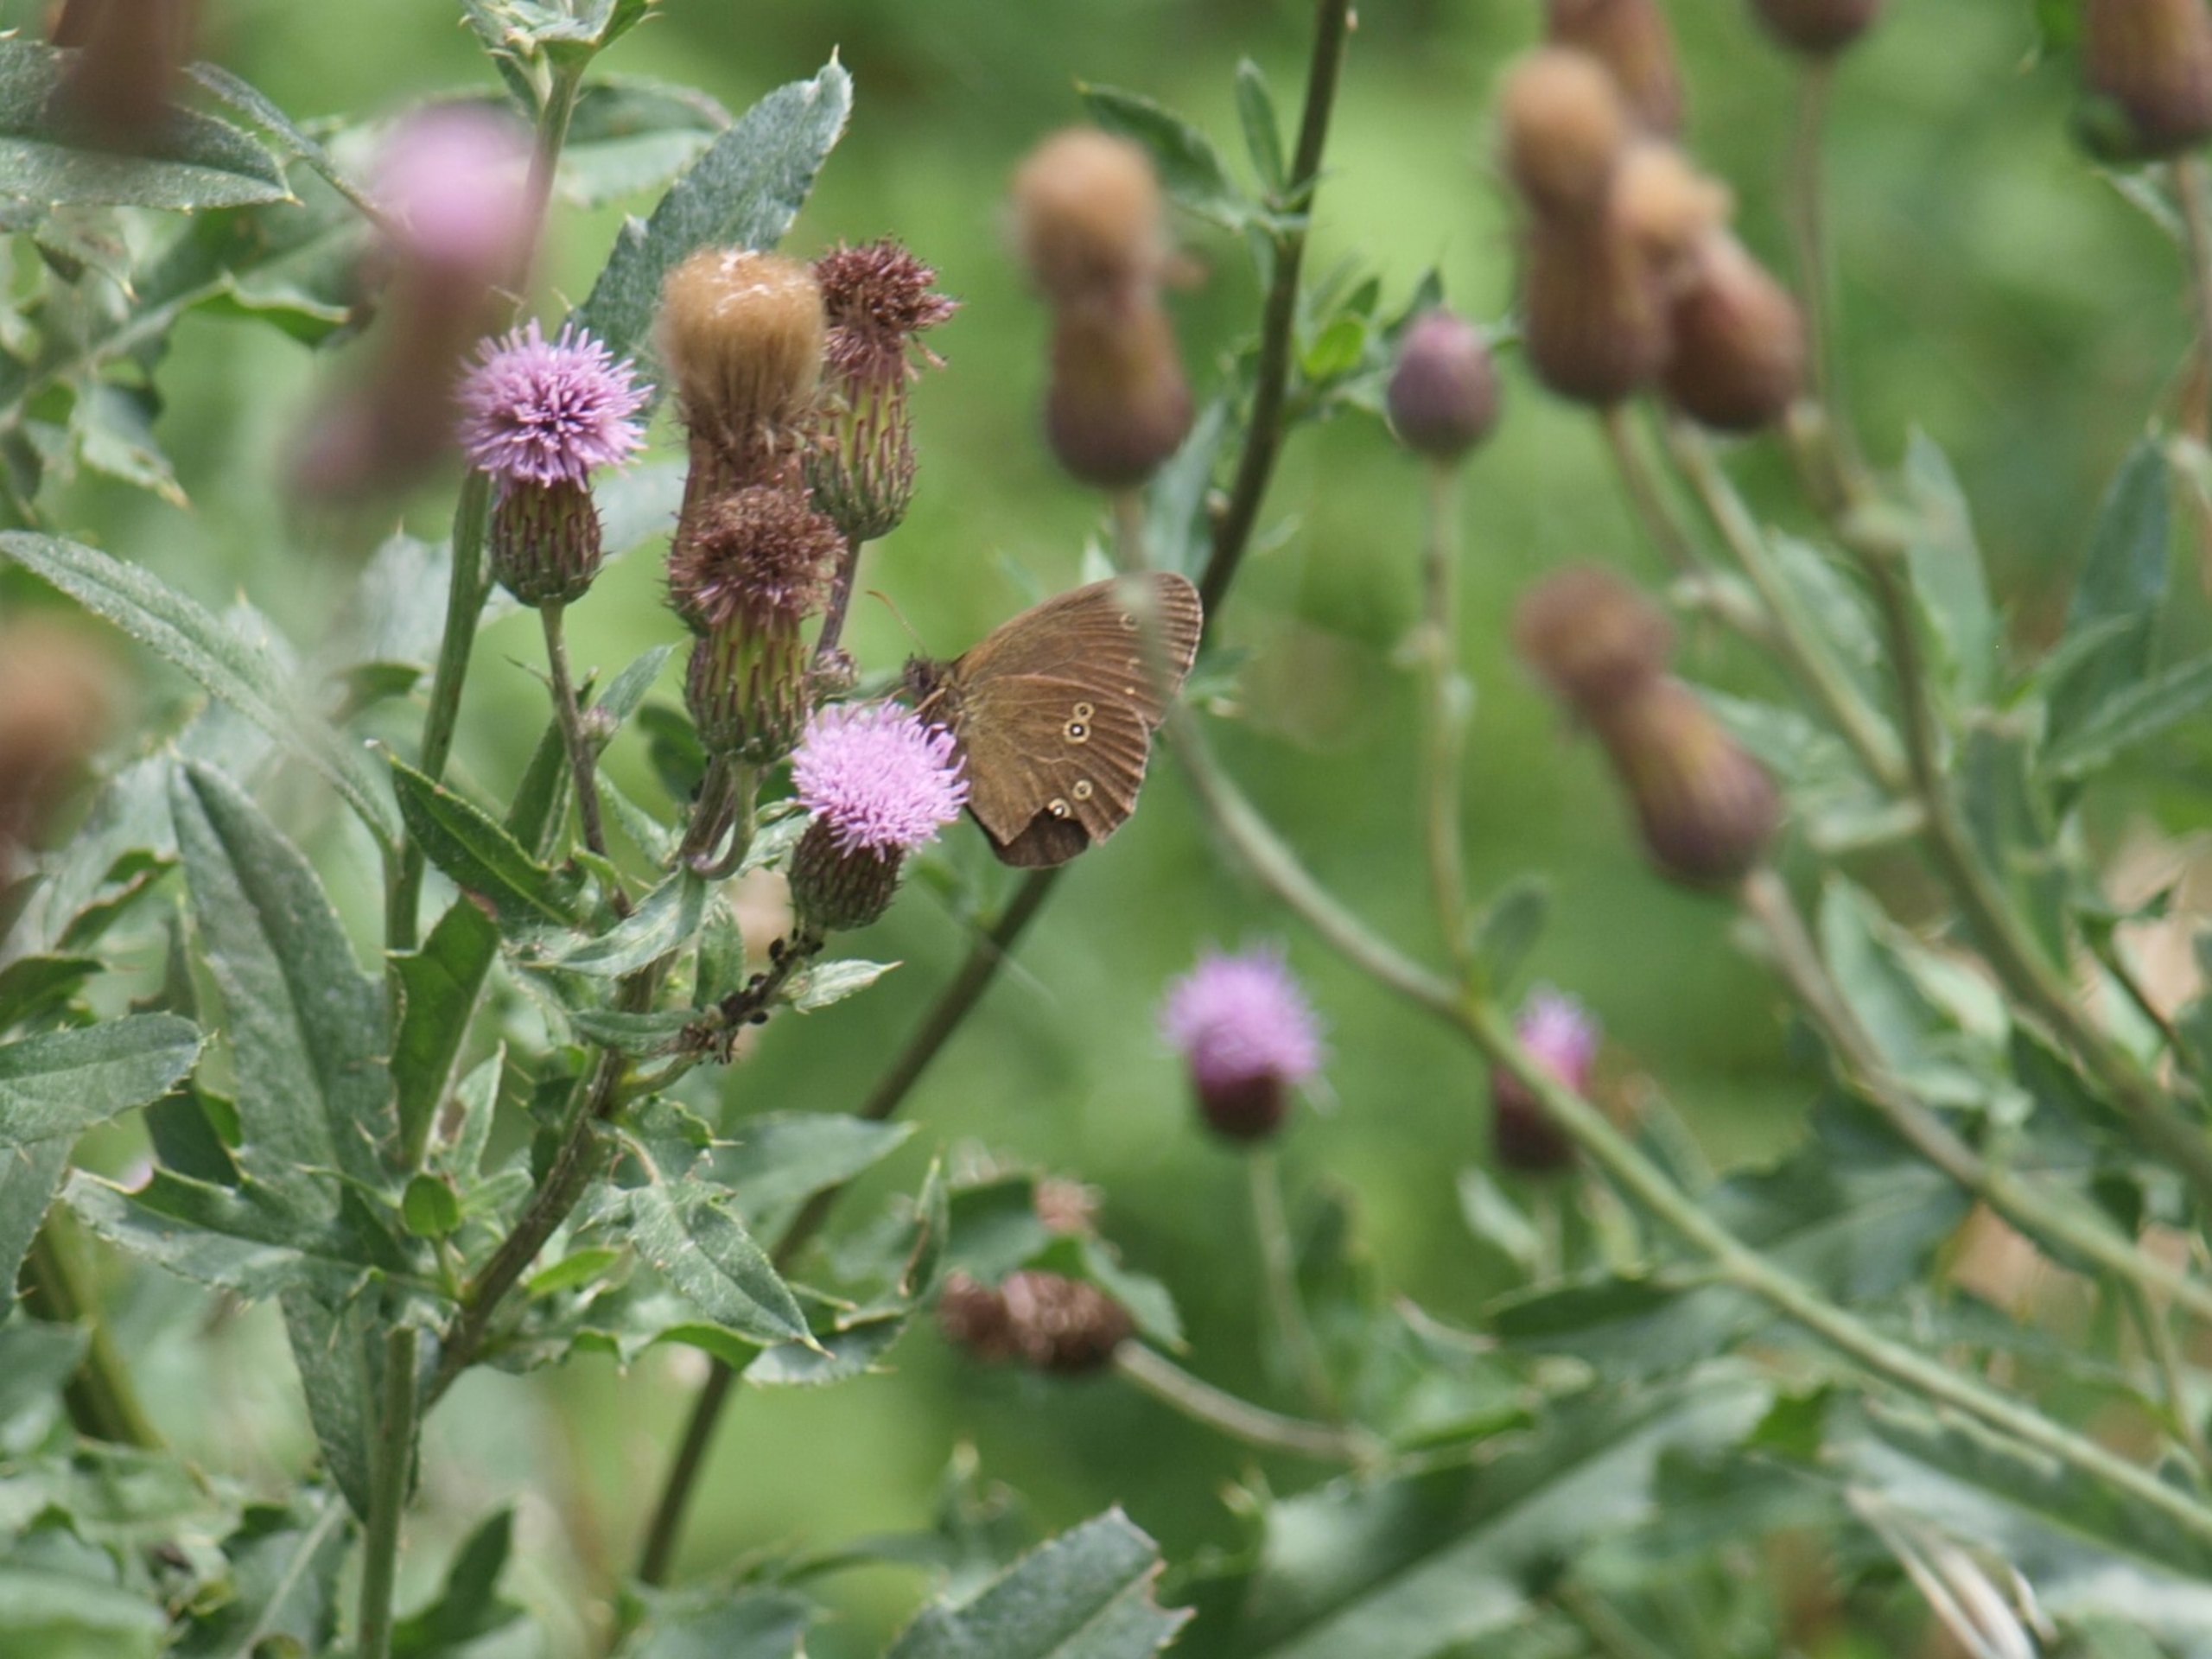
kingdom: Animalia
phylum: Arthropoda
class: Insecta
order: Lepidoptera
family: Nymphalidae
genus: Aphantopus
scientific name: Aphantopus hyperantus
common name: Engrandøje
